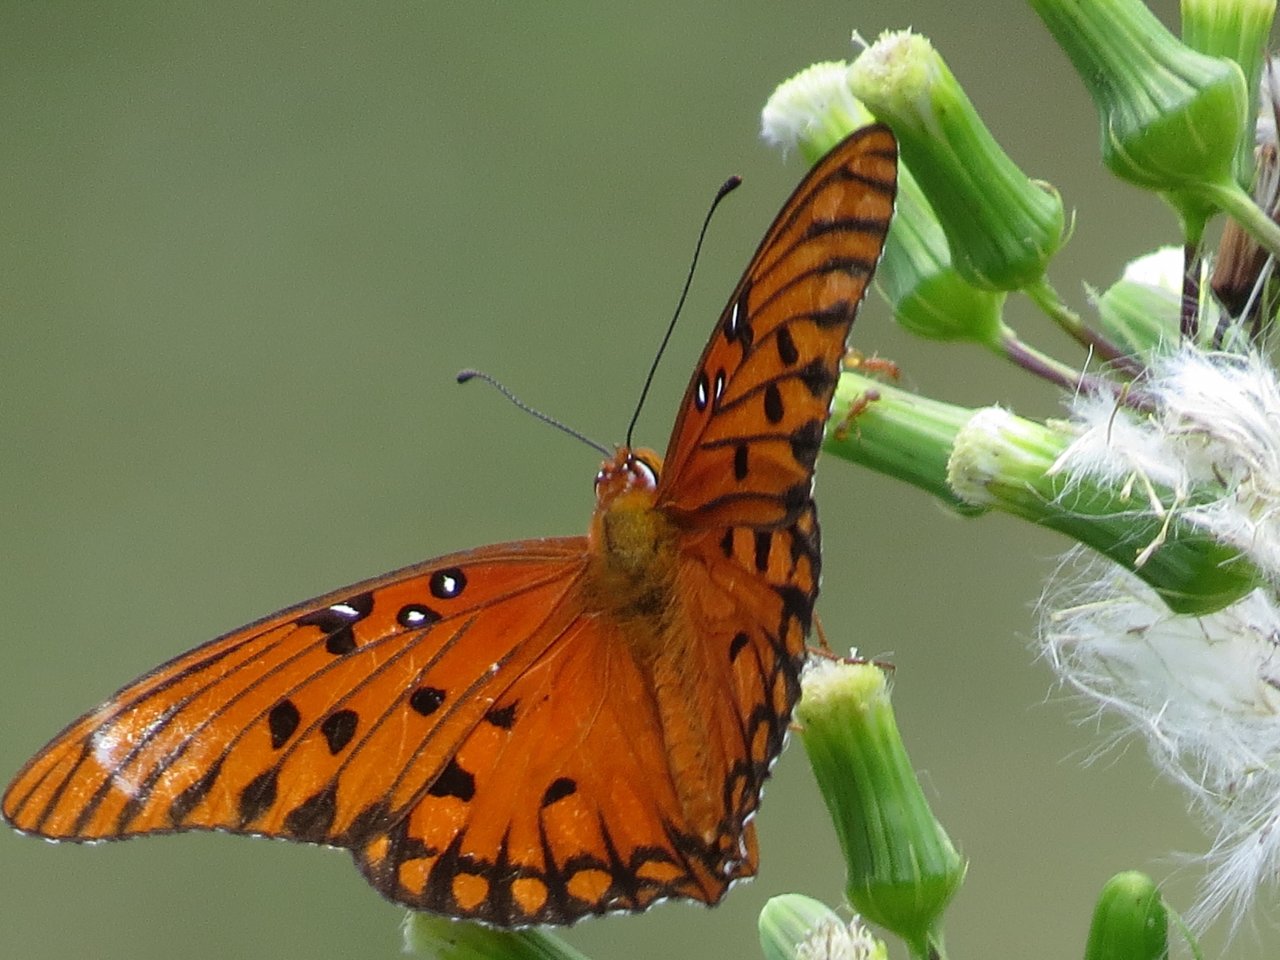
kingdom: Animalia
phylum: Arthropoda
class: Insecta
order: Lepidoptera
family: Nymphalidae
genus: Dione
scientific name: Dione vanillae
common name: Gulf Fritillary
